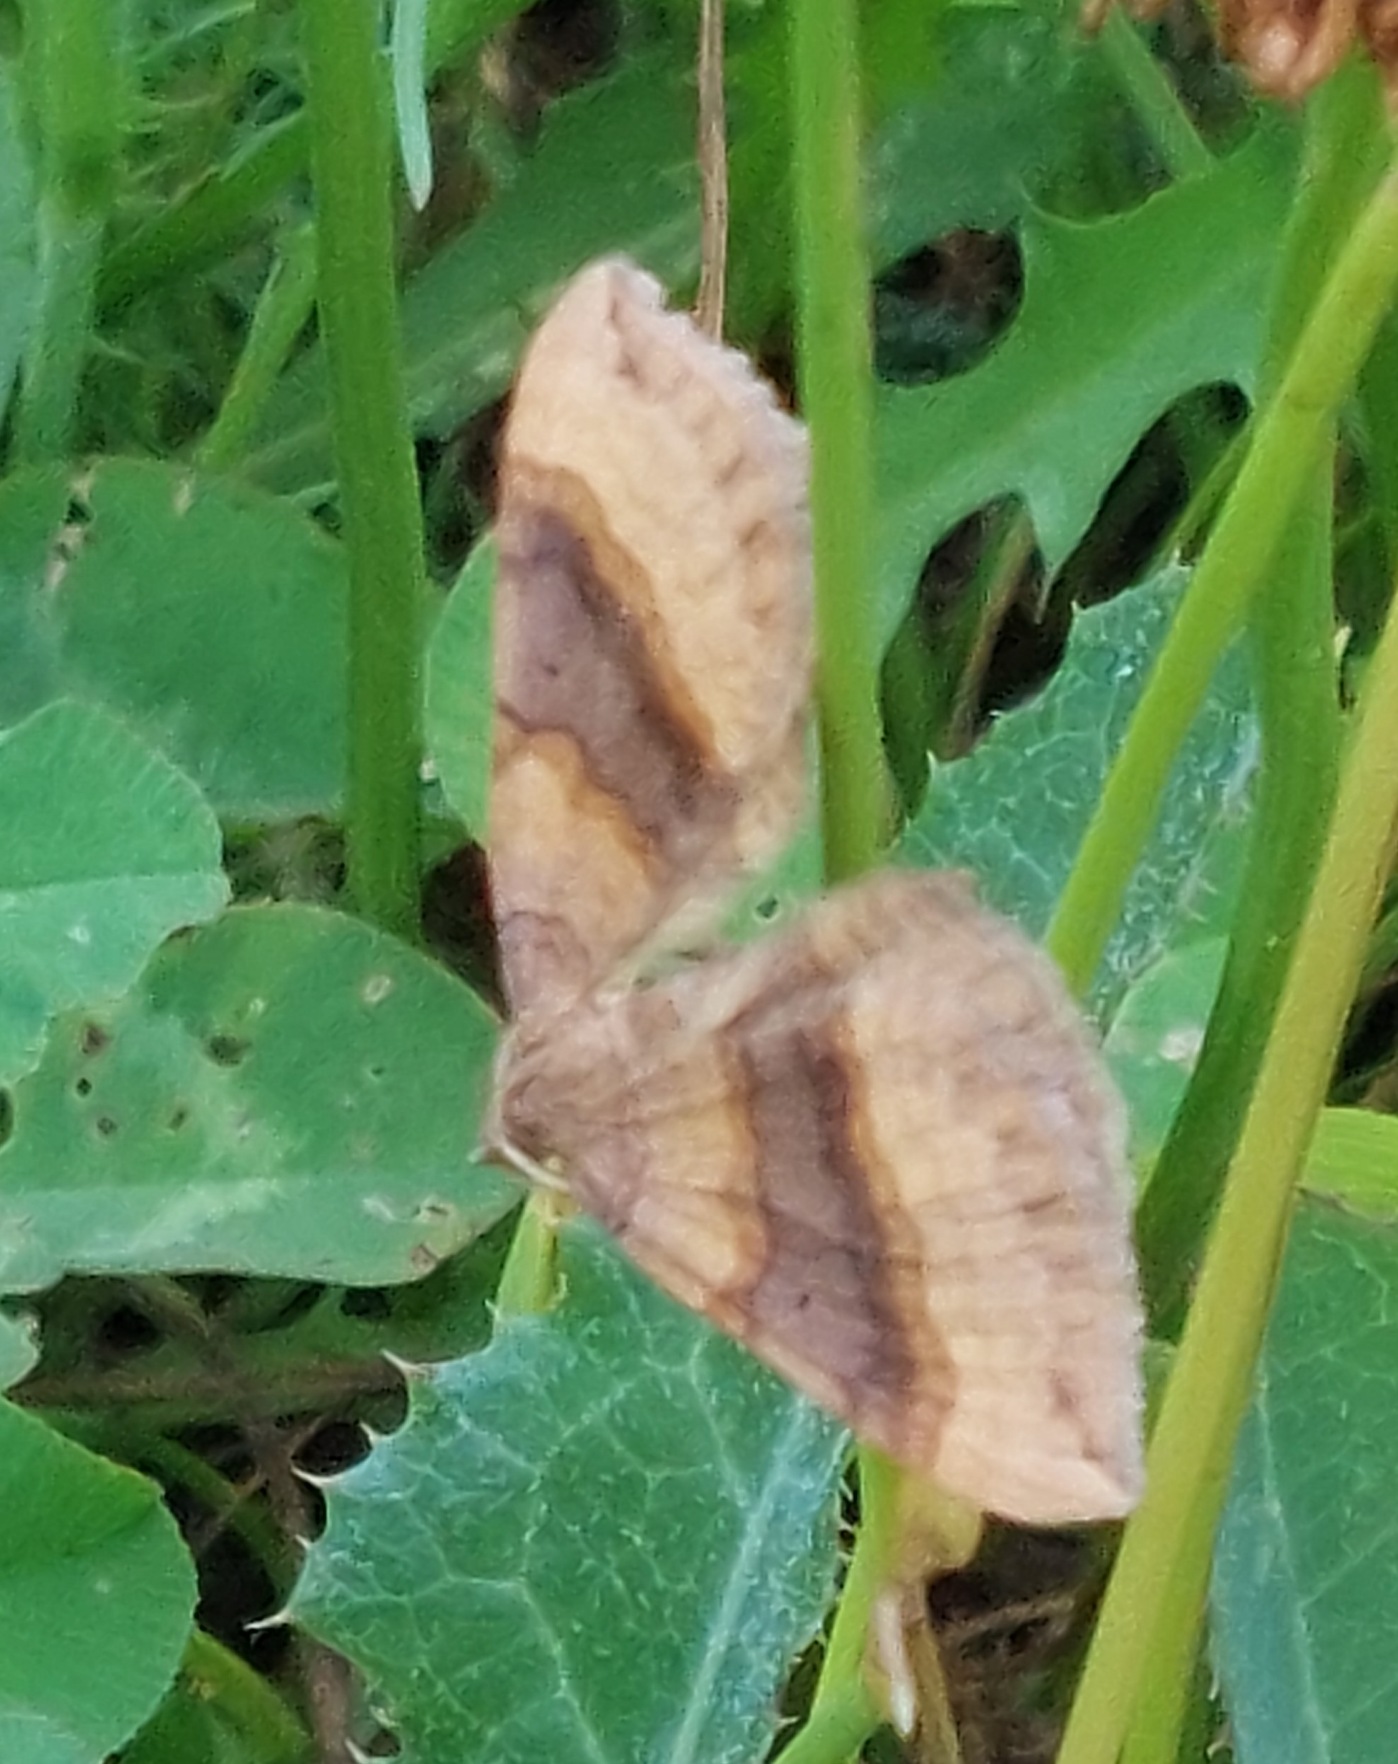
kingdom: Animalia
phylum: Arthropoda
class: Insecta
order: Lepidoptera
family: Geometridae
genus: Scotopteryx
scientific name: Scotopteryx chenopodiata
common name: Almindelig spidsvingemåler
